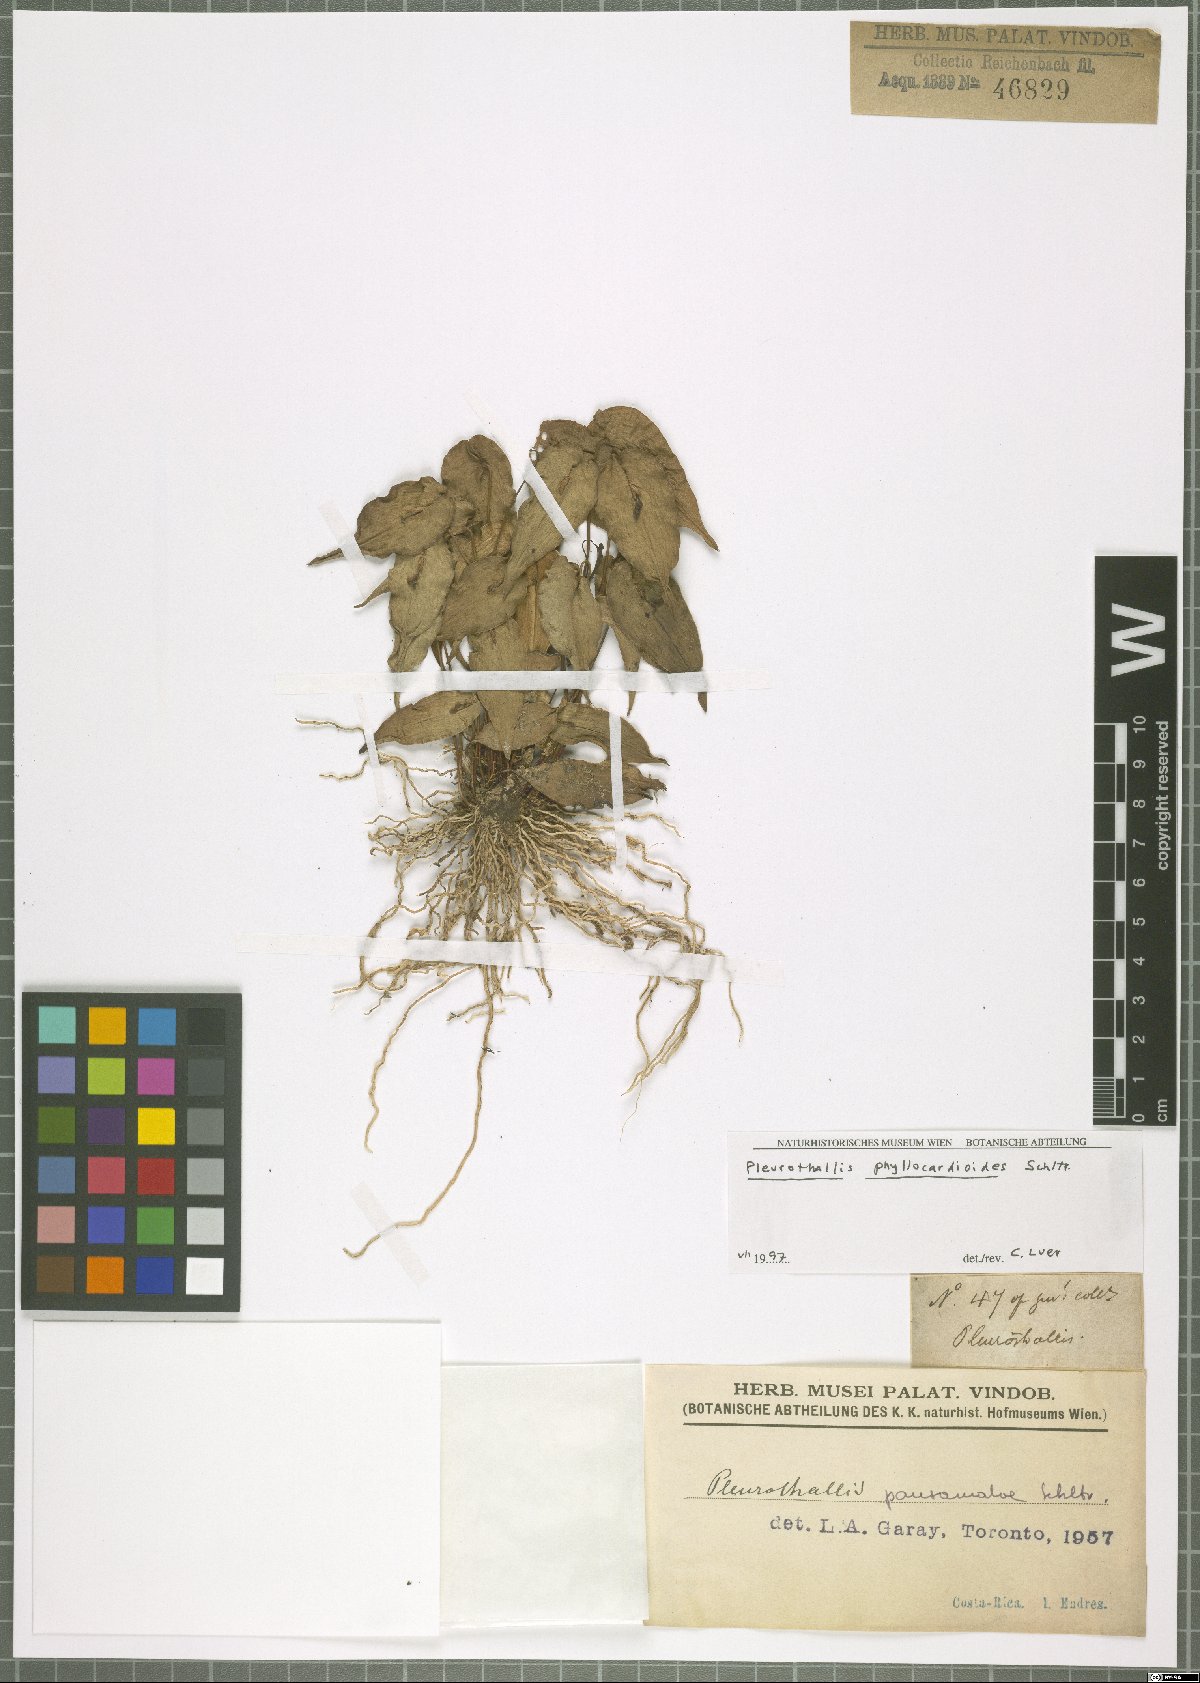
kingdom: Plantae
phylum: Tracheophyta
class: Liliopsida
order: Asparagales
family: Orchidaceae
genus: Pleurothallis
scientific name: Pleurothallis phyllocardioides
